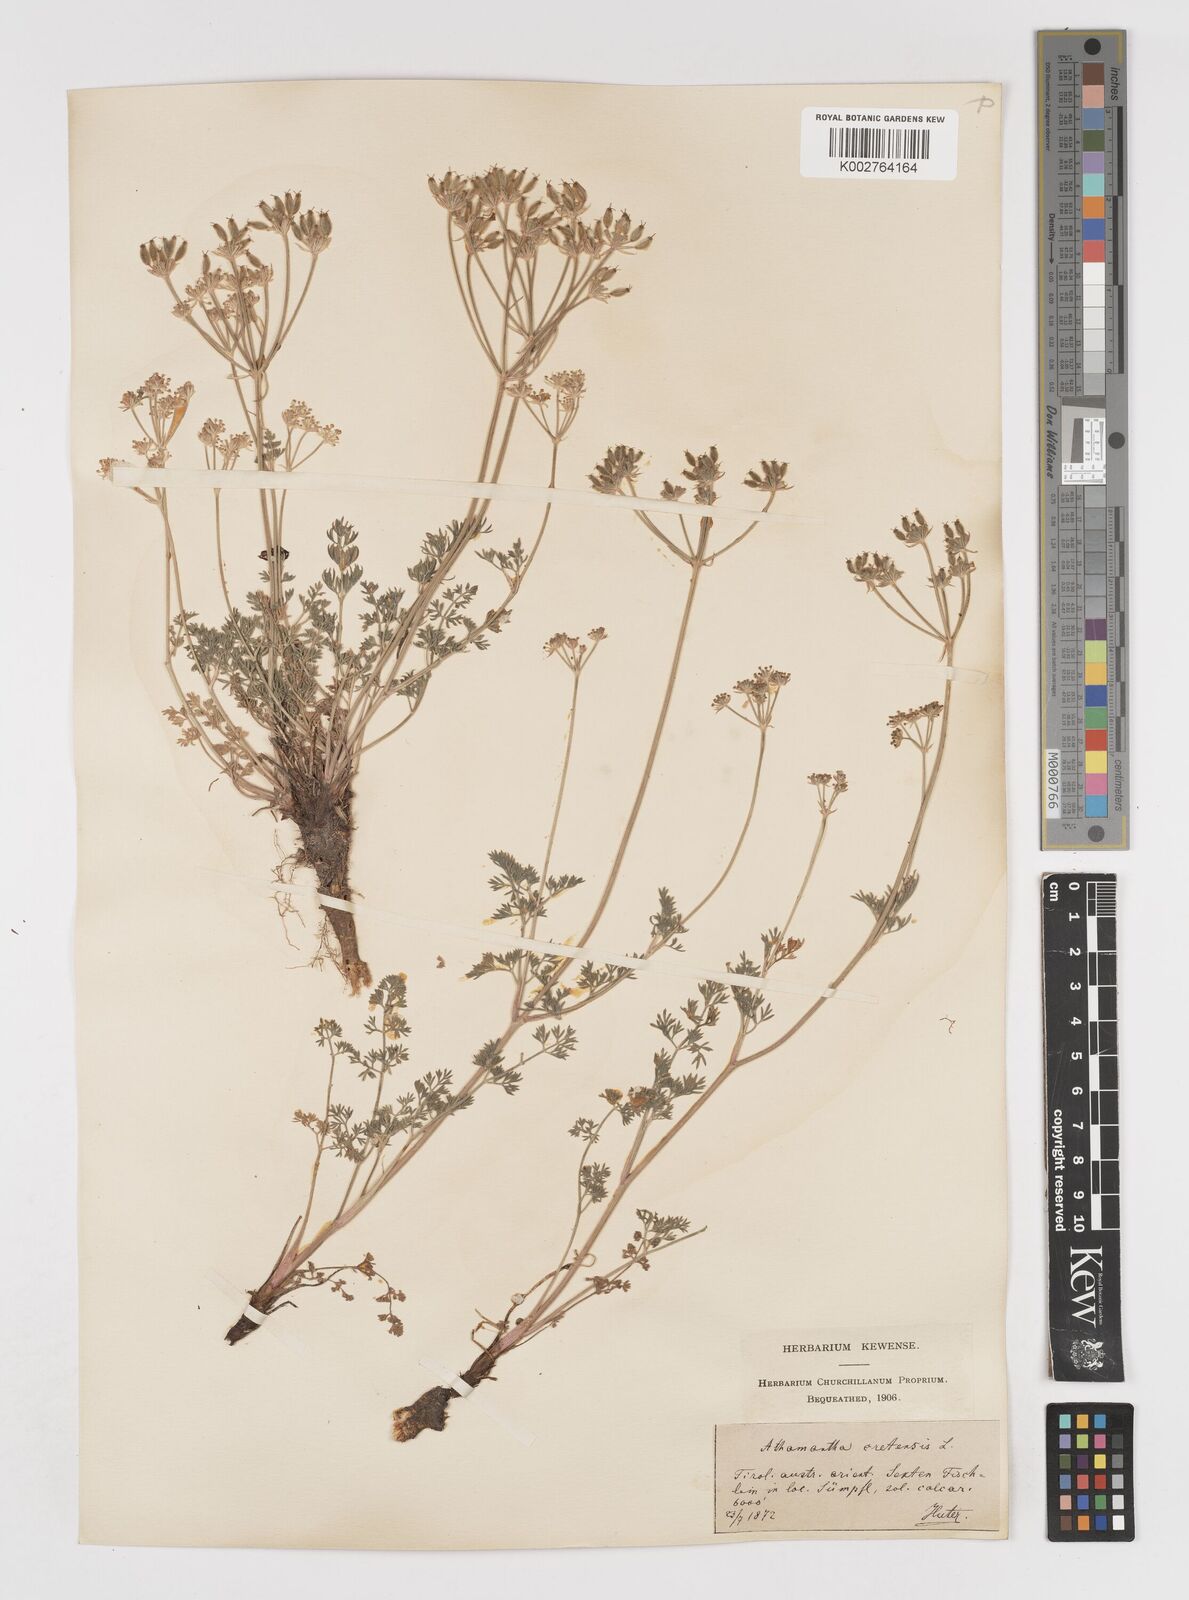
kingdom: Plantae
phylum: Tracheophyta
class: Magnoliopsida
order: Apiales
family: Apiaceae
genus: Athamanta
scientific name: Athamanta cretensis
